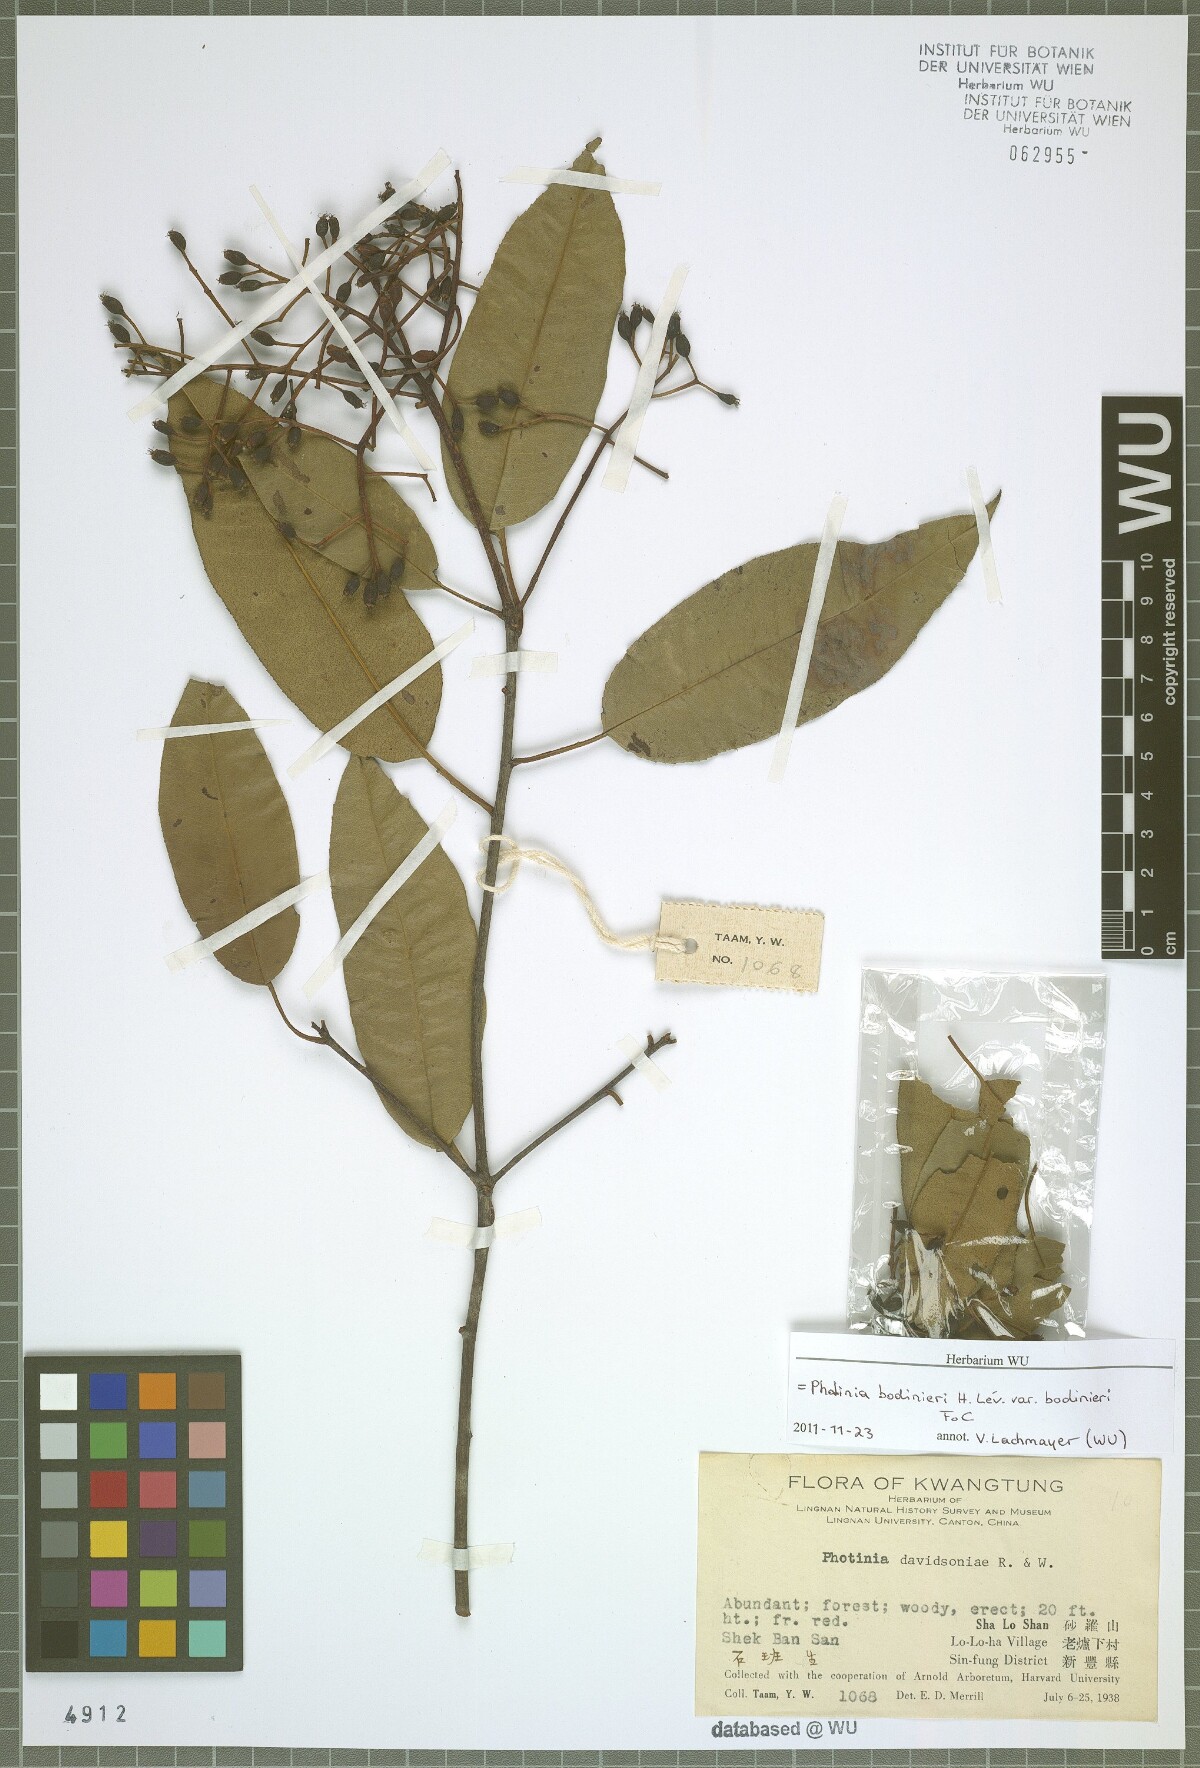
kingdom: Plantae
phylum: Tracheophyta
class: Magnoliopsida
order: Rosales
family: Rosaceae
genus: Stranvaesia
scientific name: Stranvaesia bodinieri
